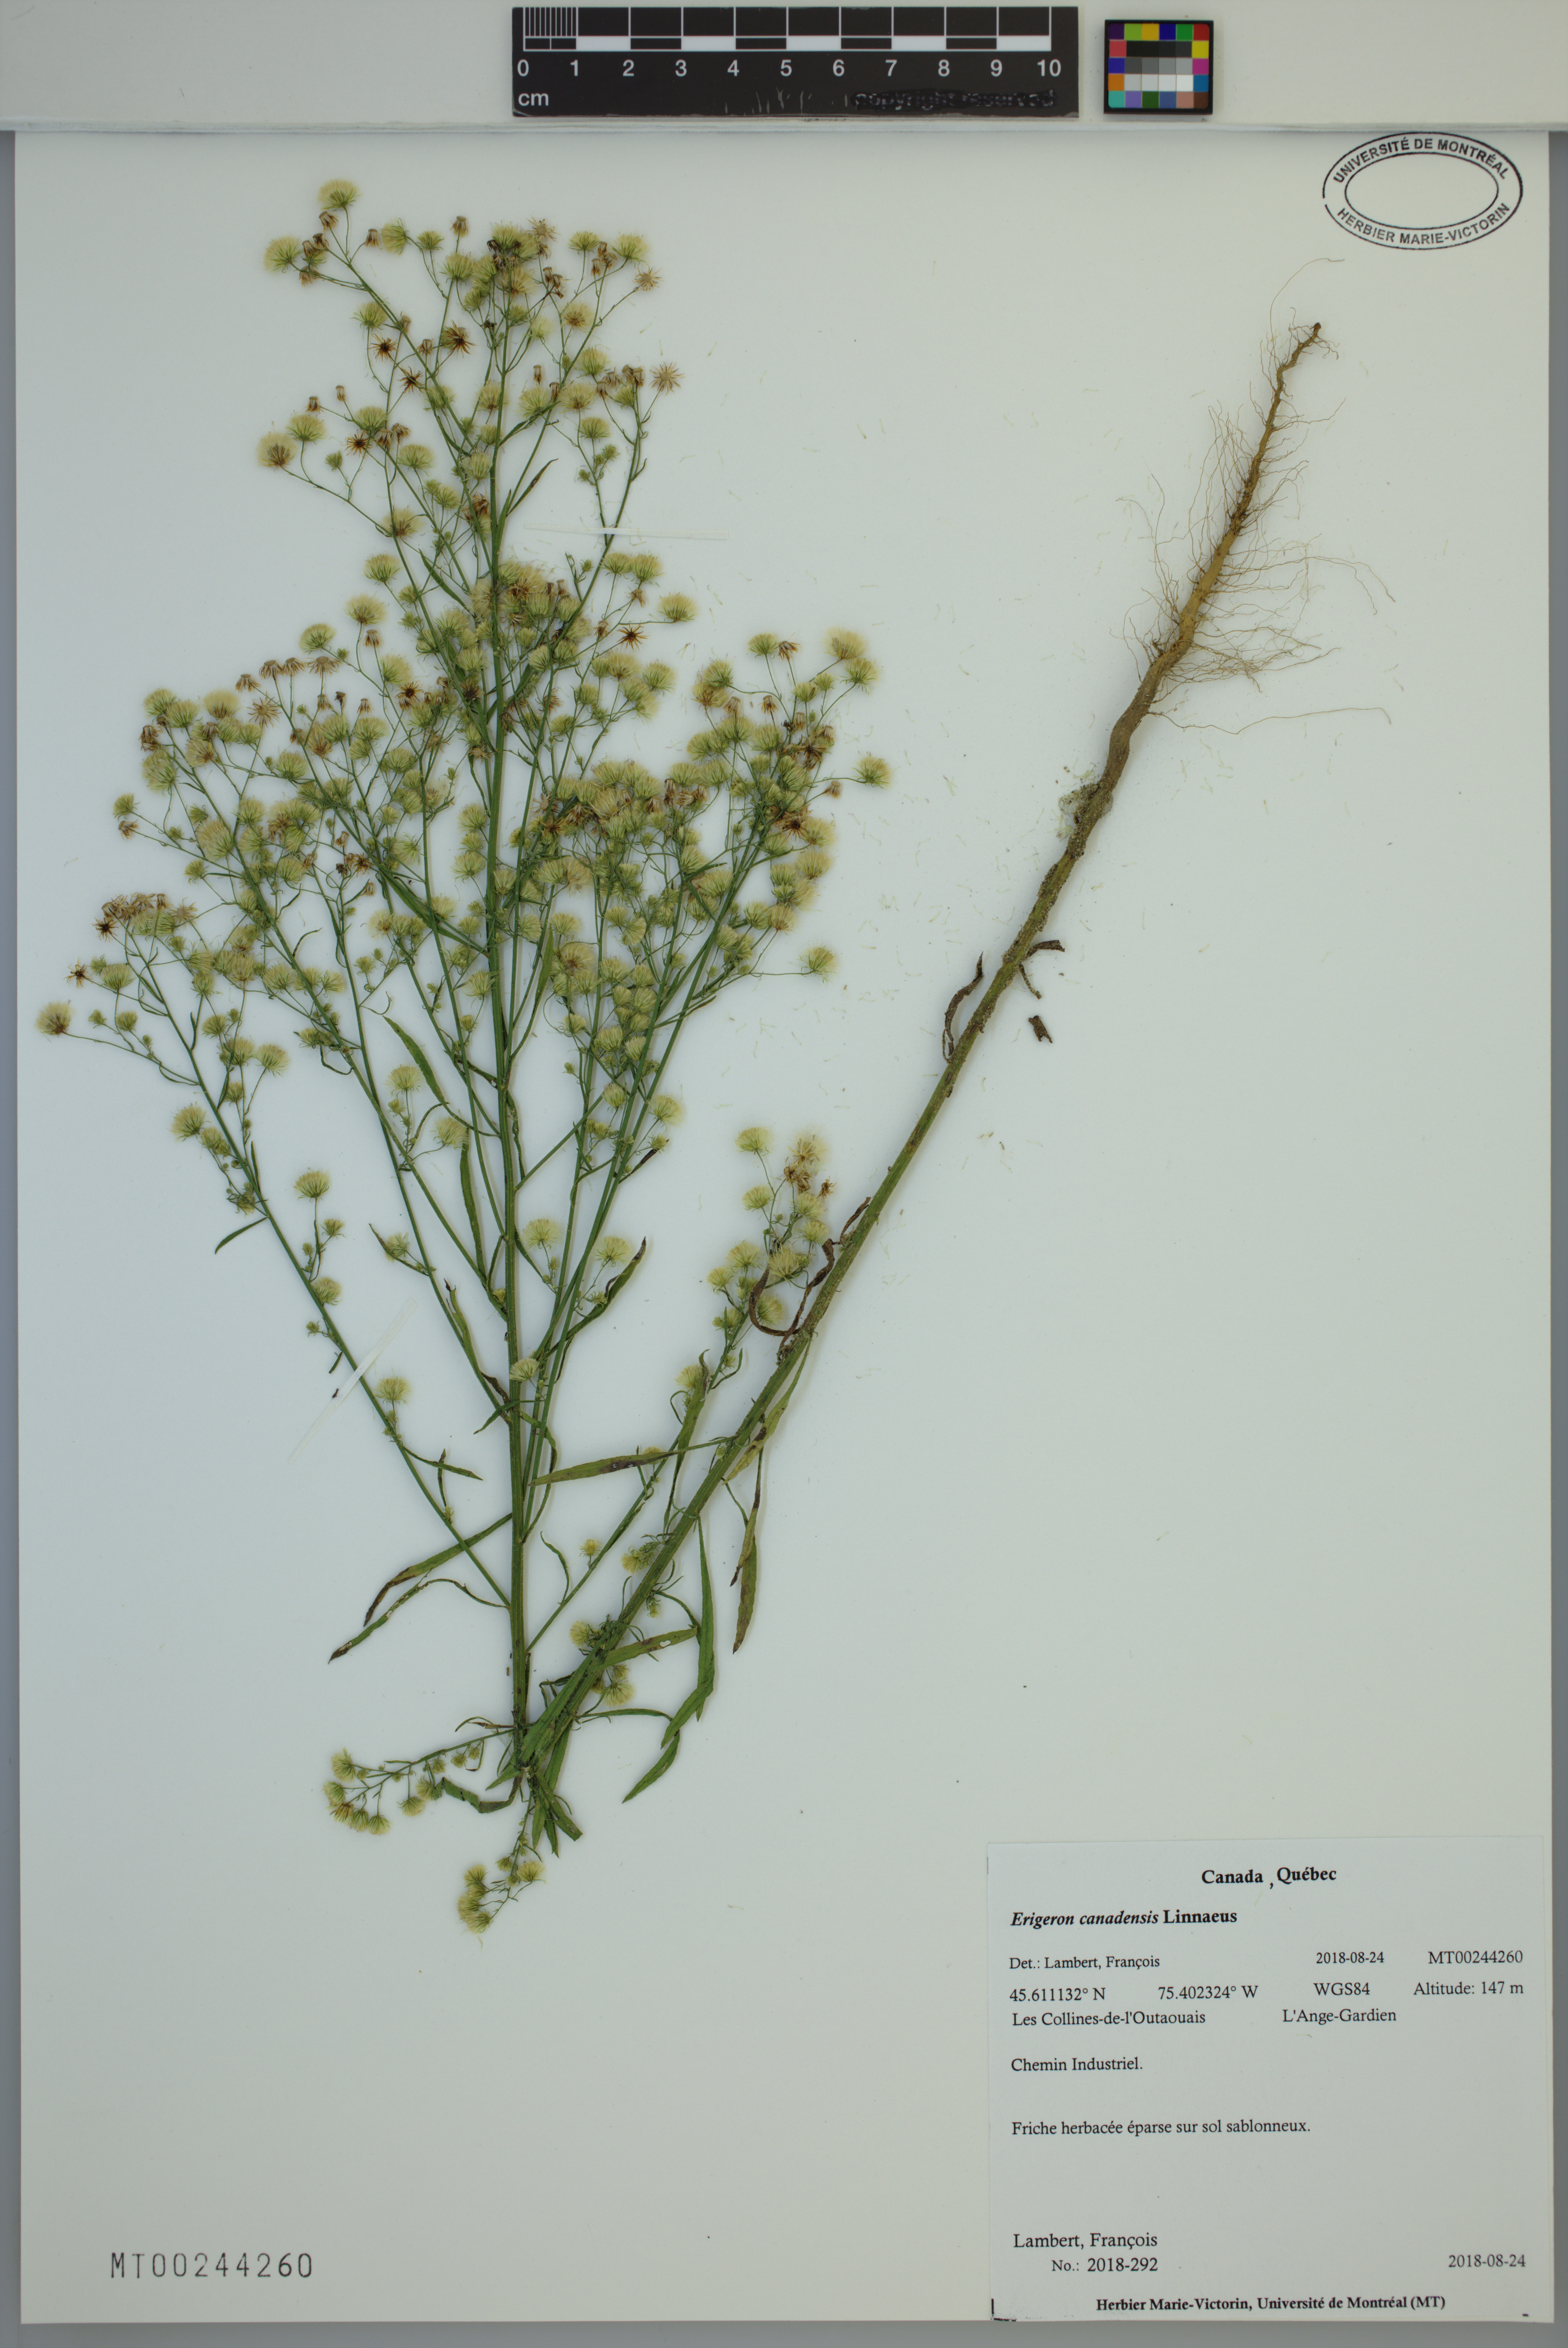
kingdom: Plantae
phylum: Tracheophyta
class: Magnoliopsida
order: Asterales
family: Asteraceae
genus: Erigeron
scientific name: Erigeron canadensis
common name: Canadian fleabane
